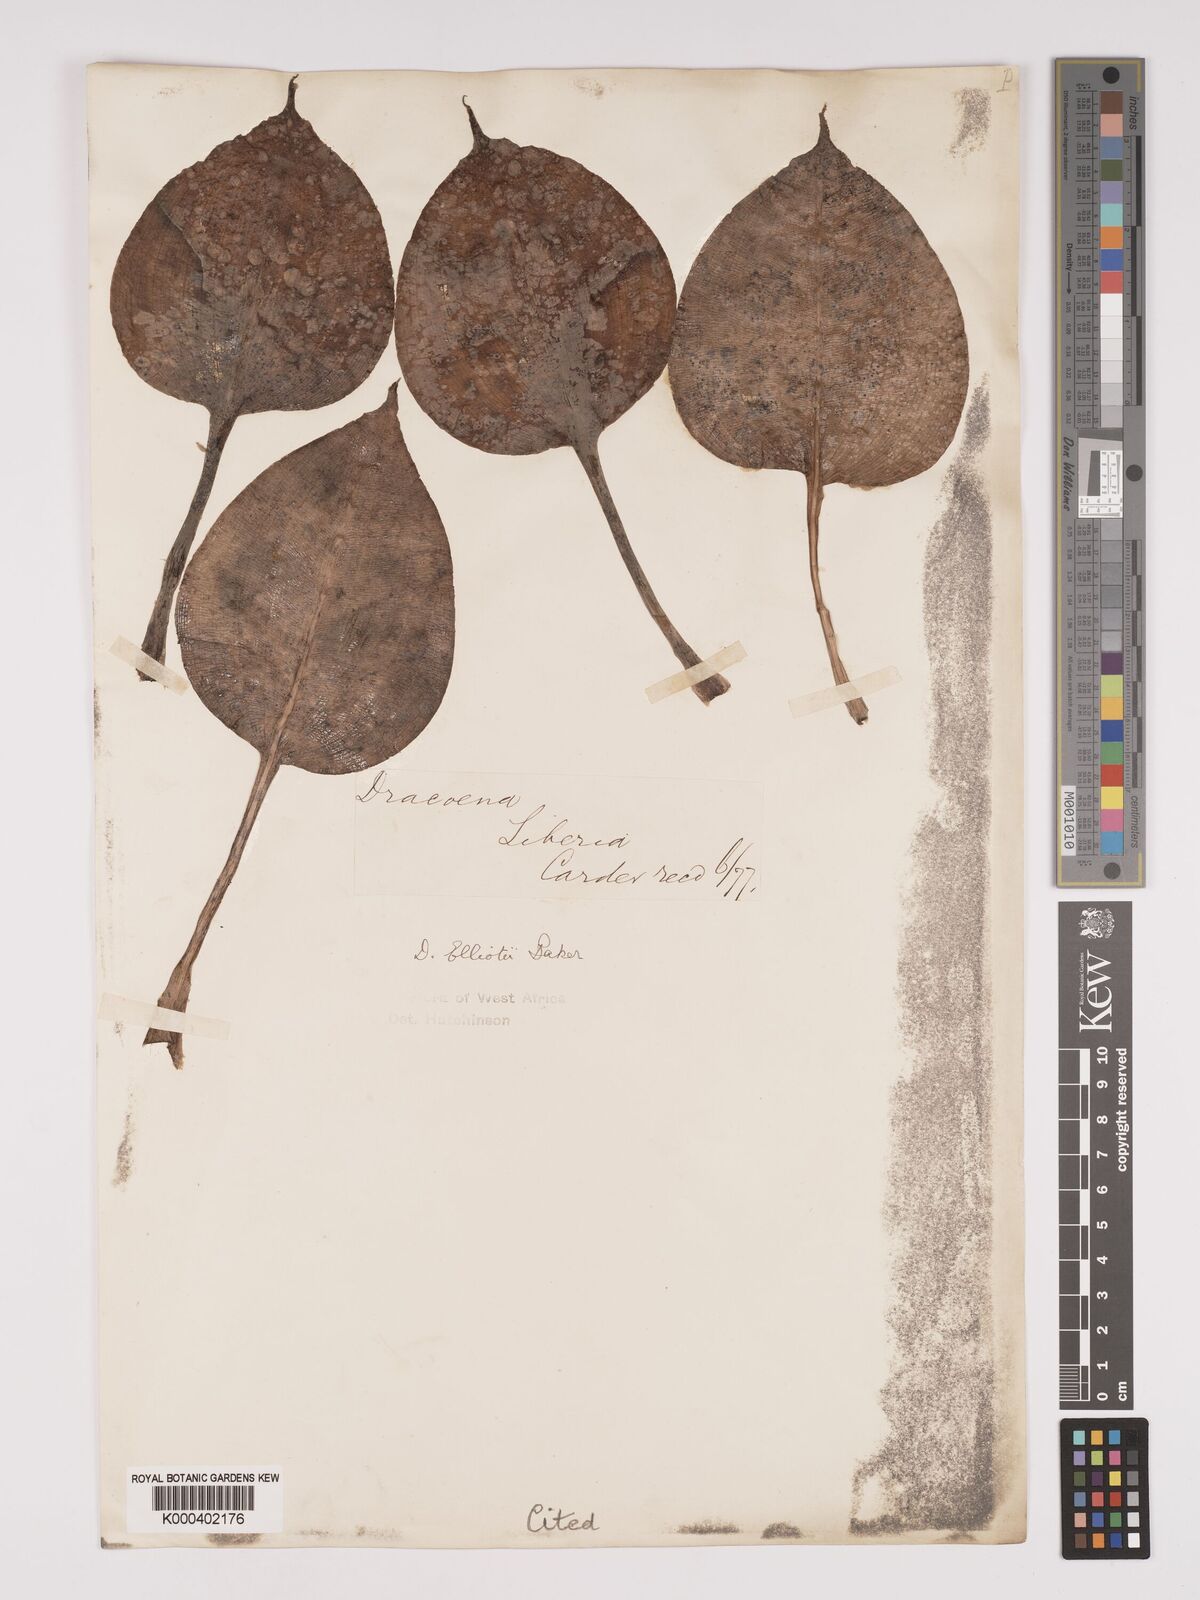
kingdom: Plantae
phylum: Tracheophyta
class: Liliopsida
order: Asparagales
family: Asparagaceae
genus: Dracaena
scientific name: Dracaena cristula
